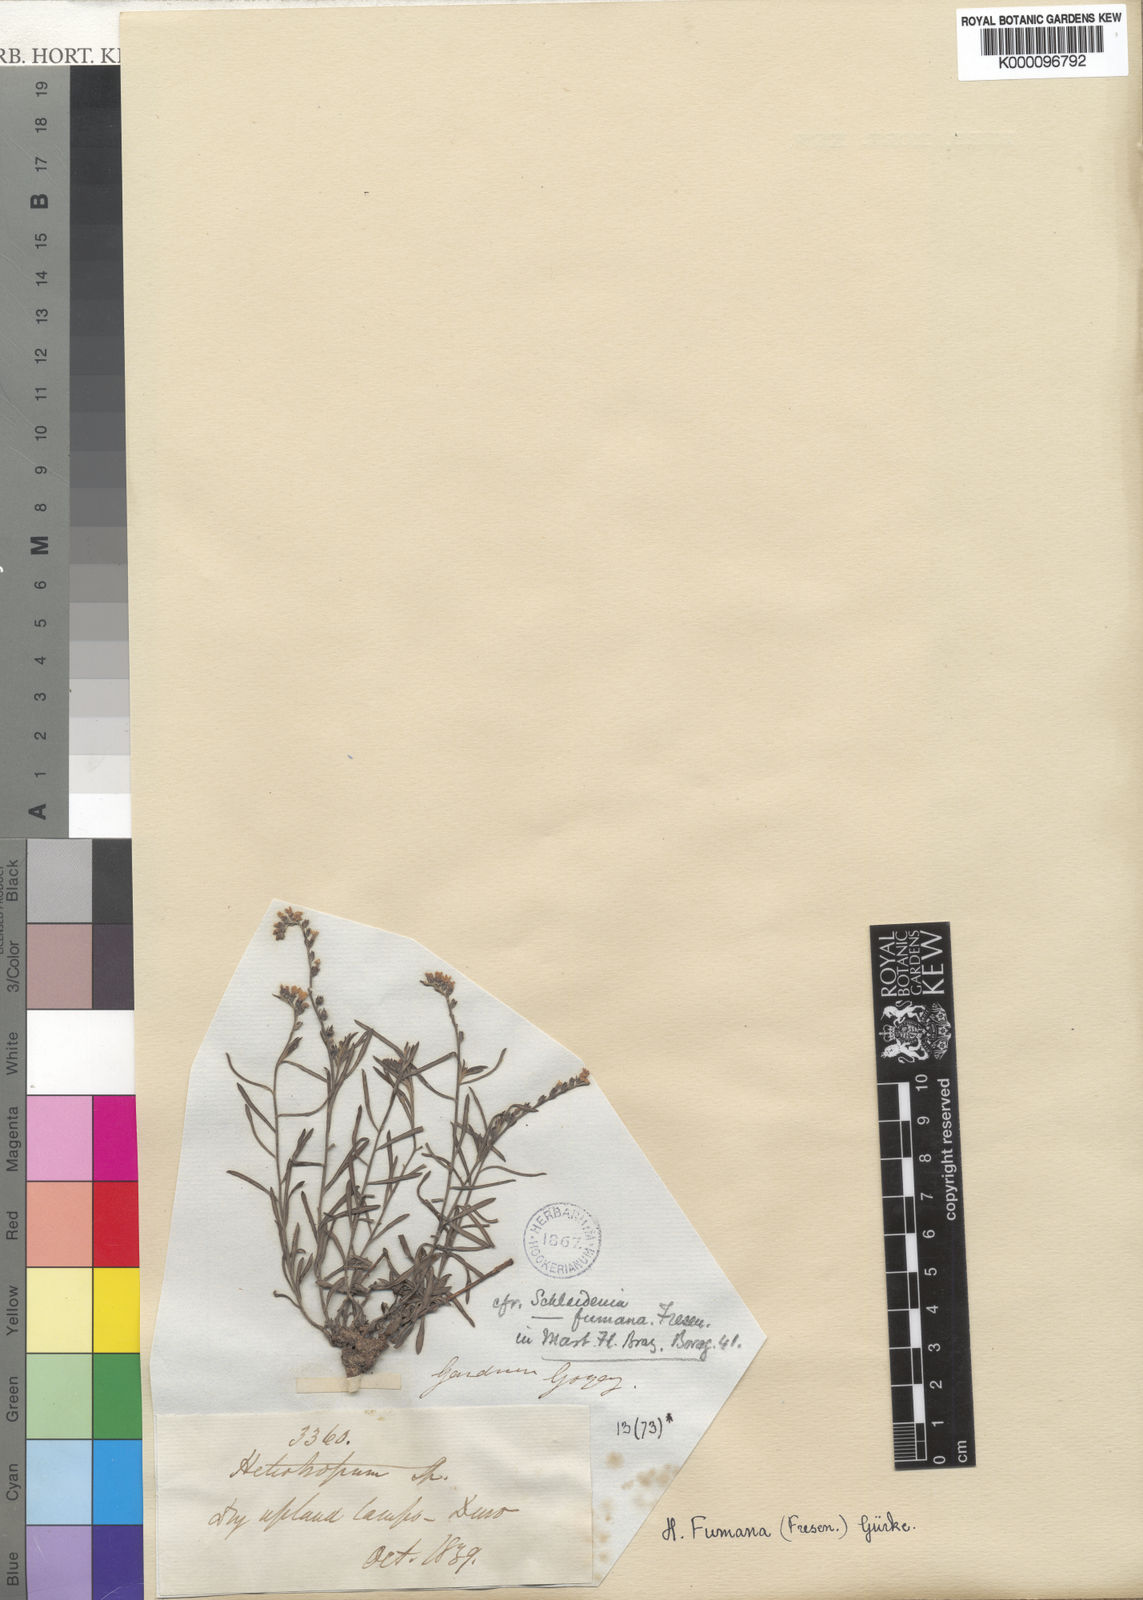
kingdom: Plantae
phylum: Tracheophyta
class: Magnoliopsida
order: Boraginales
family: Heliotropiaceae
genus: Heliotropium
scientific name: Heliotropium
